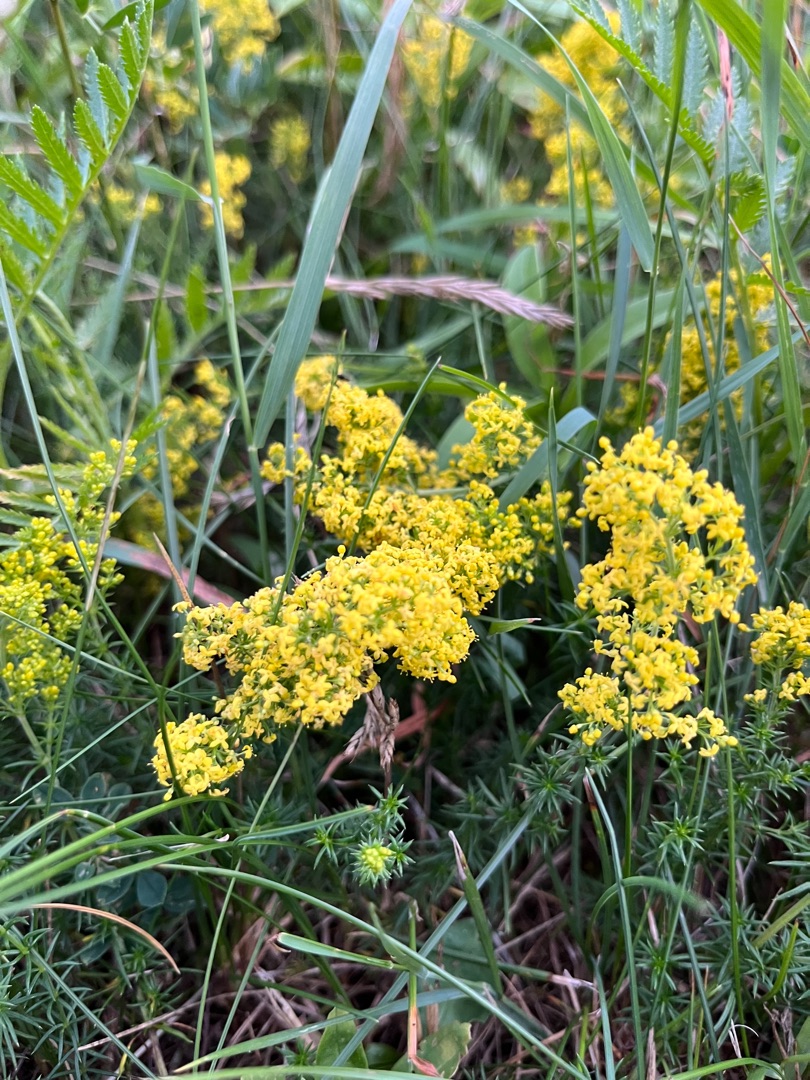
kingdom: Plantae
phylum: Tracheophyta
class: Magnoliopsida
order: Gentianales
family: Rubiaceae
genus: Galium
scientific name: Galium verum
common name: Gul snerre
